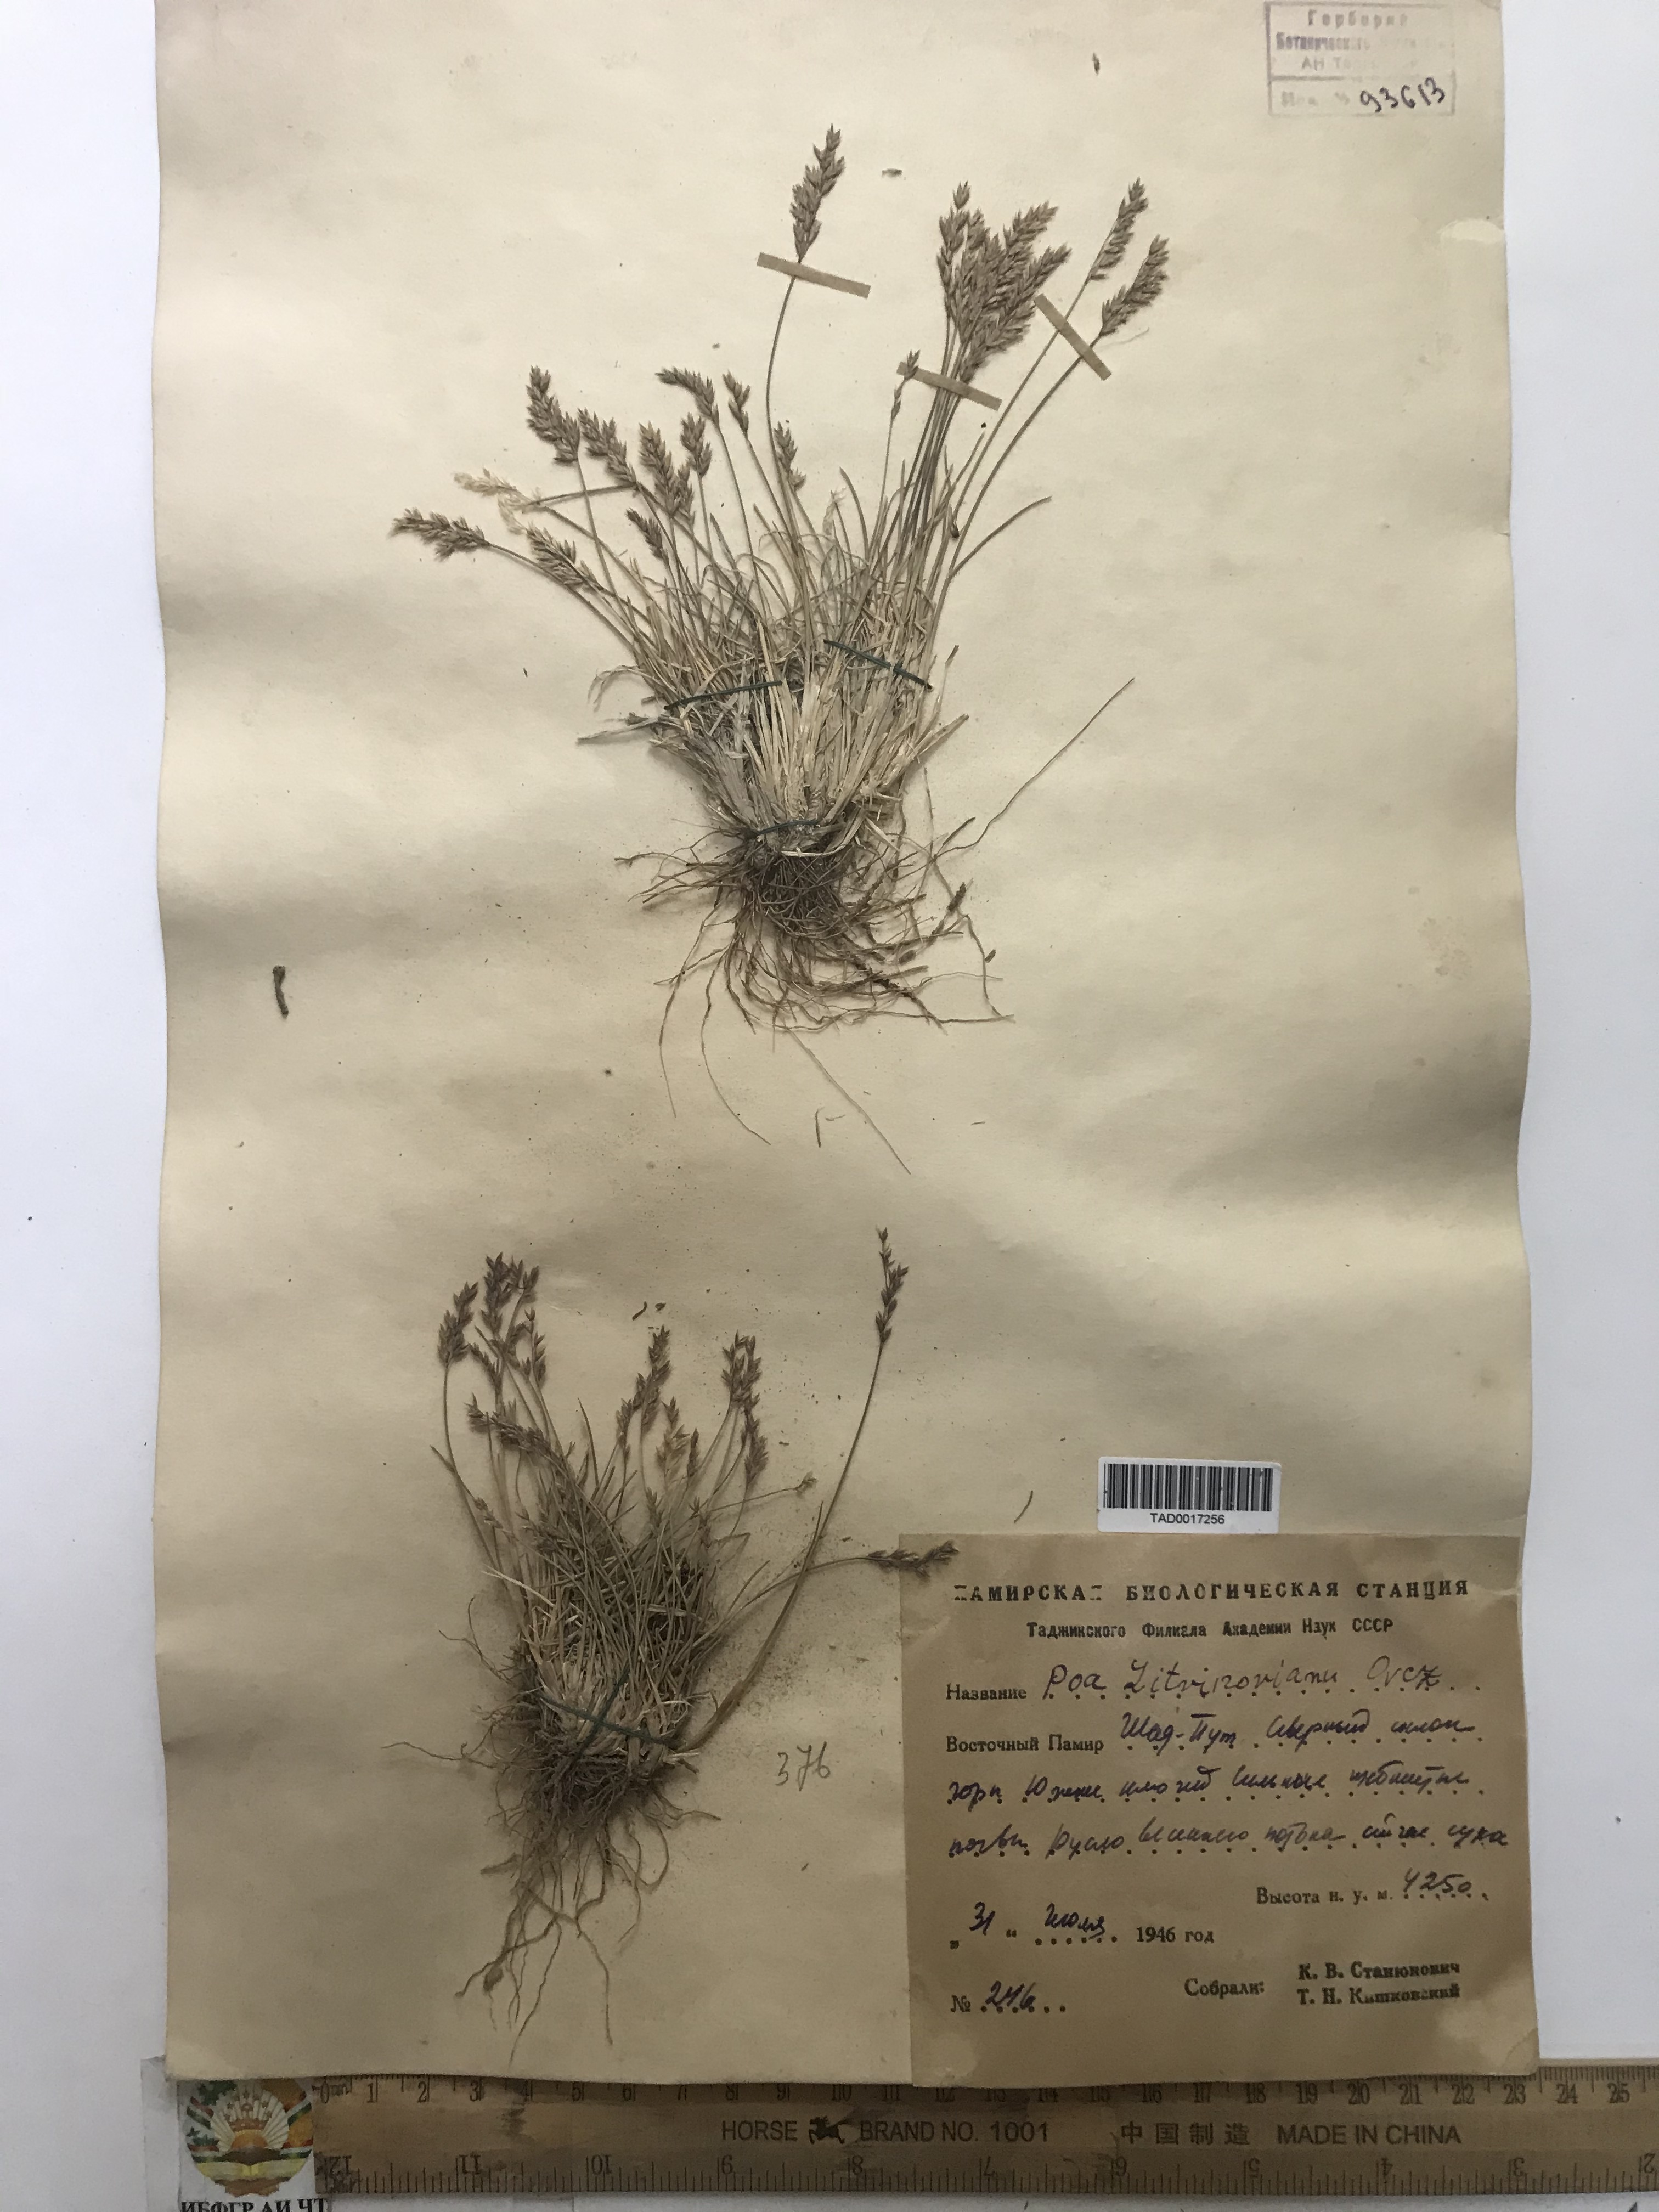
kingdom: Plantae
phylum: Tracheophyta
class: Liliopsida
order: Poales
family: Poaceae
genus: Poa
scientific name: Poa glauca
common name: Glaucous bluegrass
